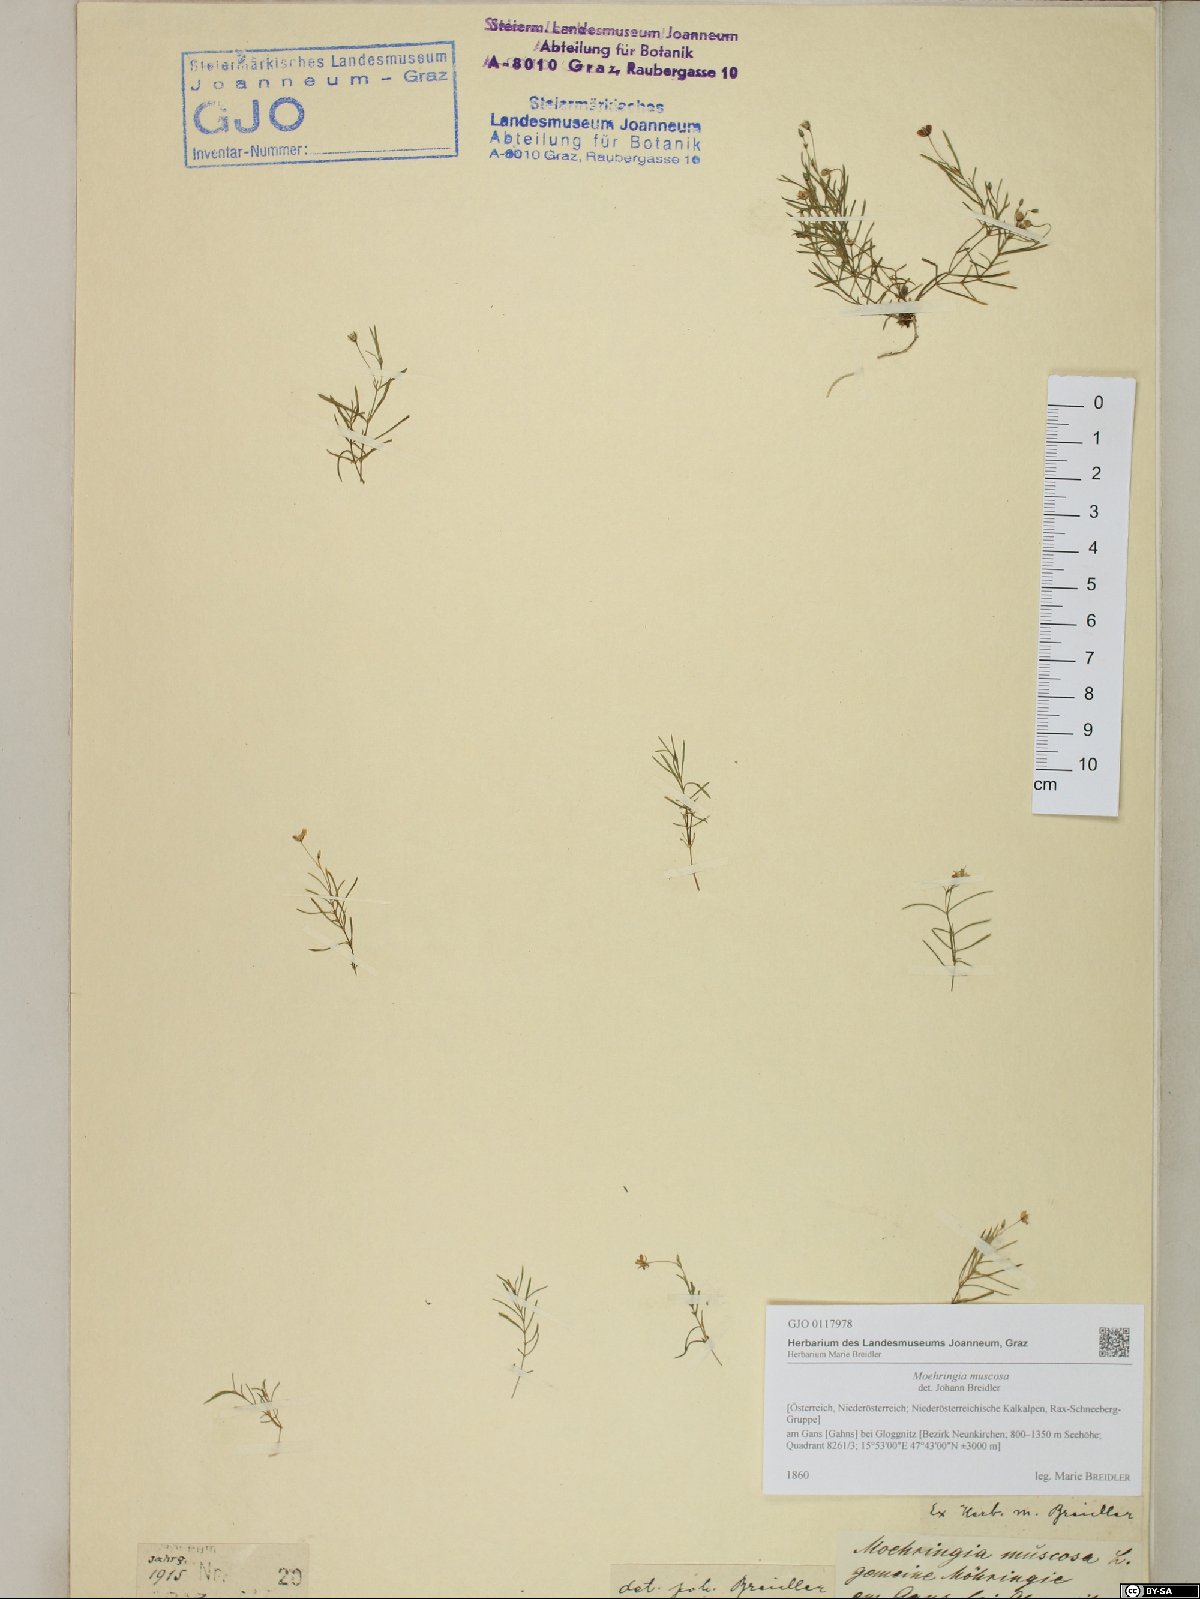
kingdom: Plantae
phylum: Tracheophyta
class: Magnoliopsida
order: Caryophyllales
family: Caryophyllaceae
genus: Moehringia
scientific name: Moehringia muscosa
